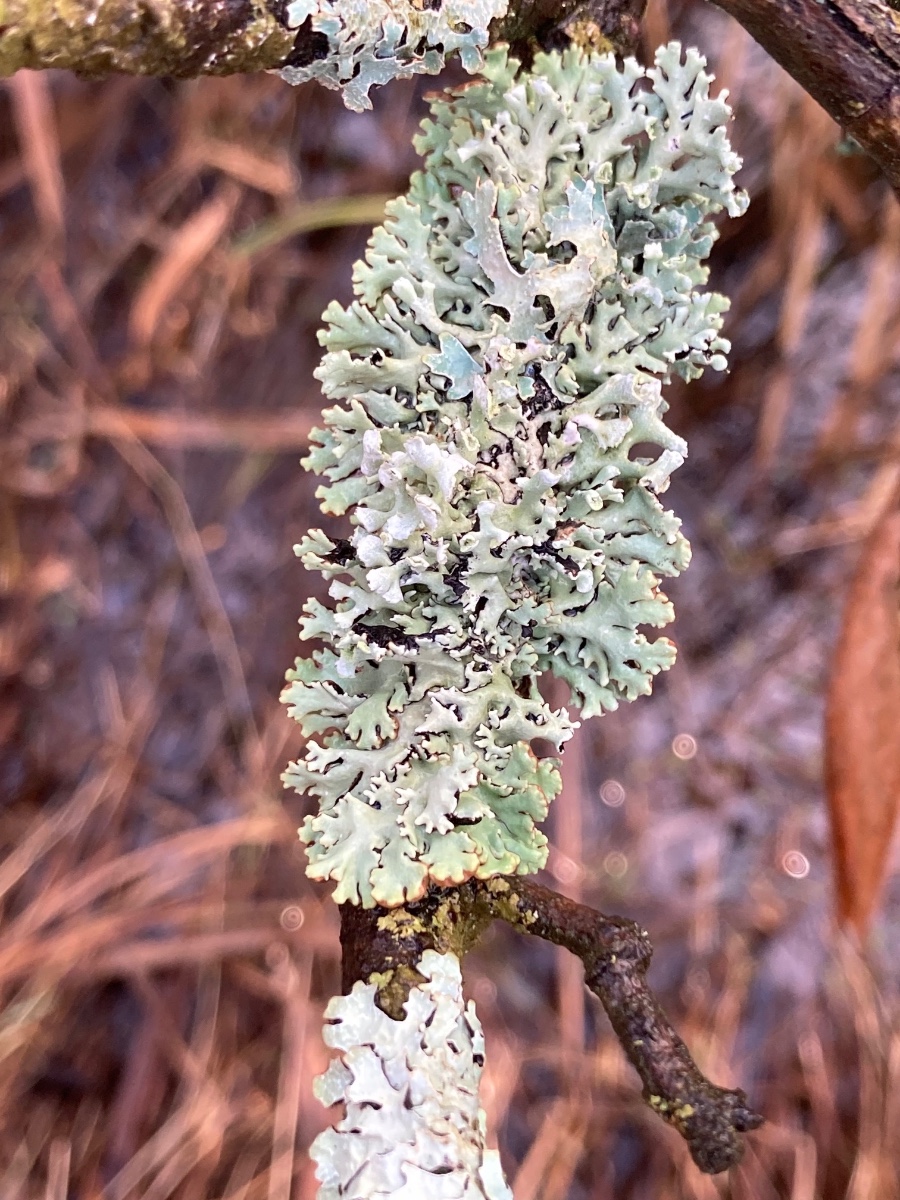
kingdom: Fungi
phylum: Ascomycota
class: Lecanoromycetes
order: Lecanorales
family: Parmeliaceae
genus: Hypogymnia
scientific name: Hypogymnia physodes
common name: almindelig kvistlav
